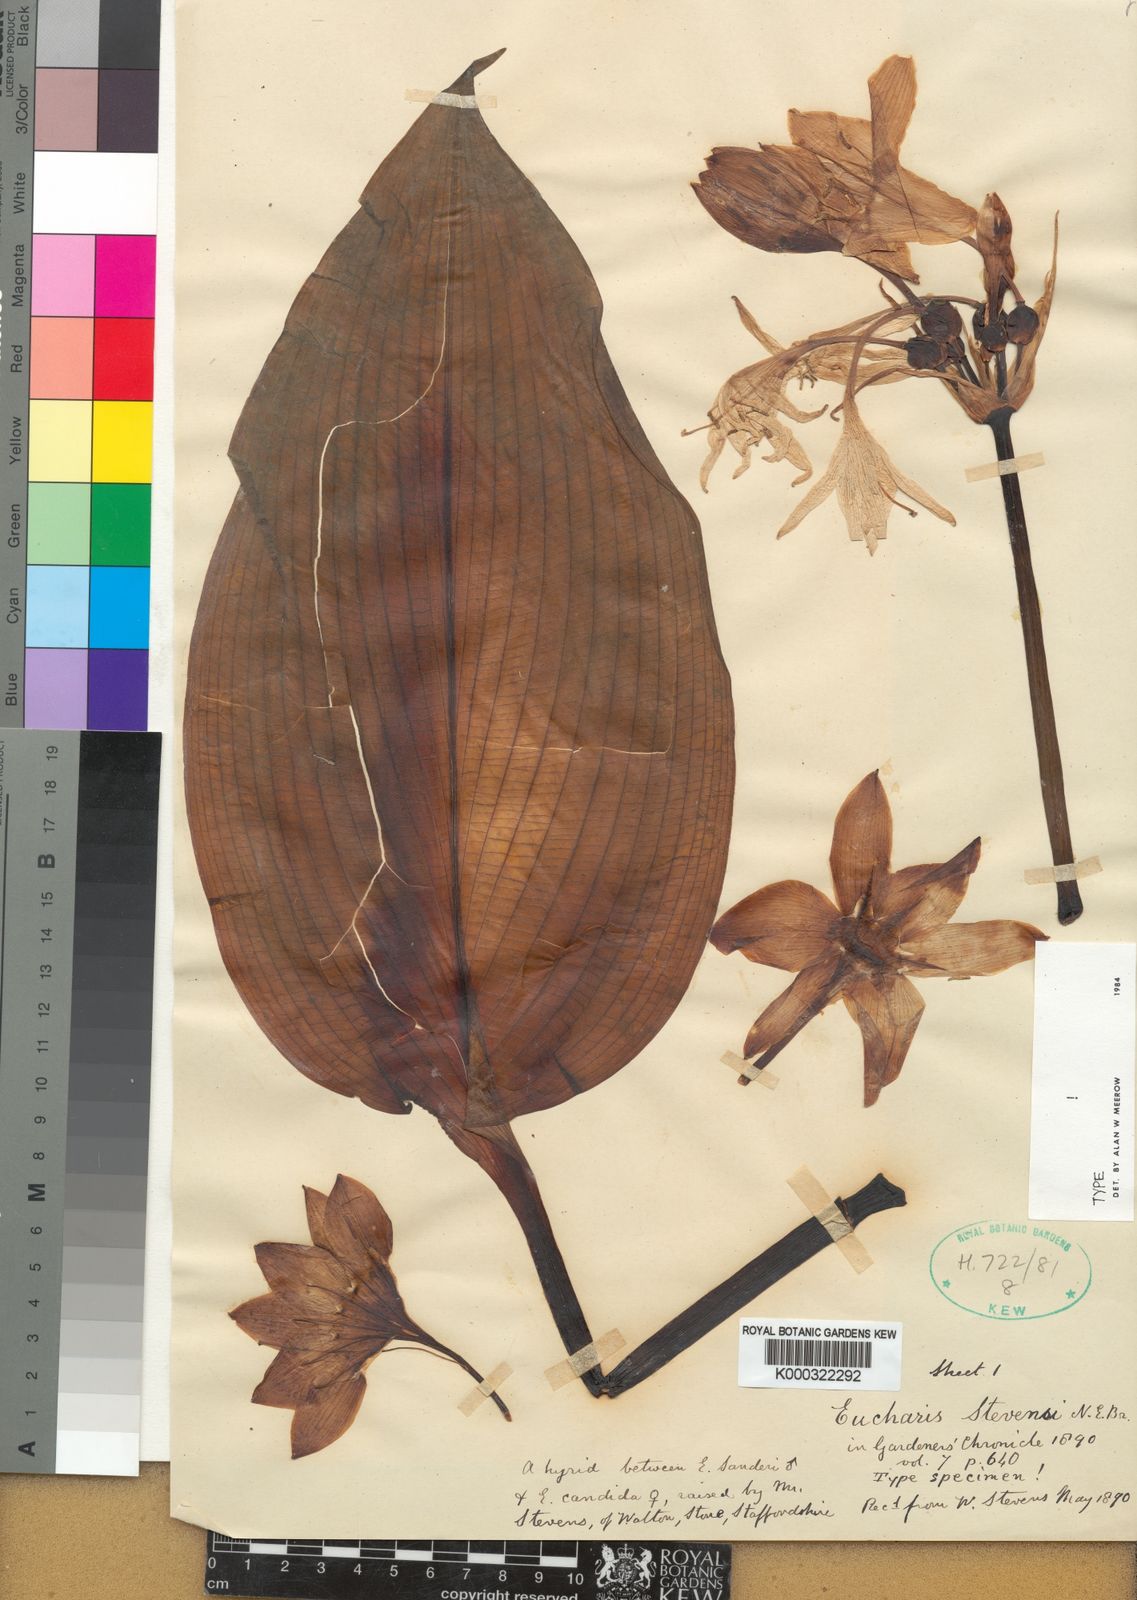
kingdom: Plantae
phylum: Tracheophyta
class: Liliopsida
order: Asparagales
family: Amaryllidaceae
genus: Urceolina
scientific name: Urceolina
